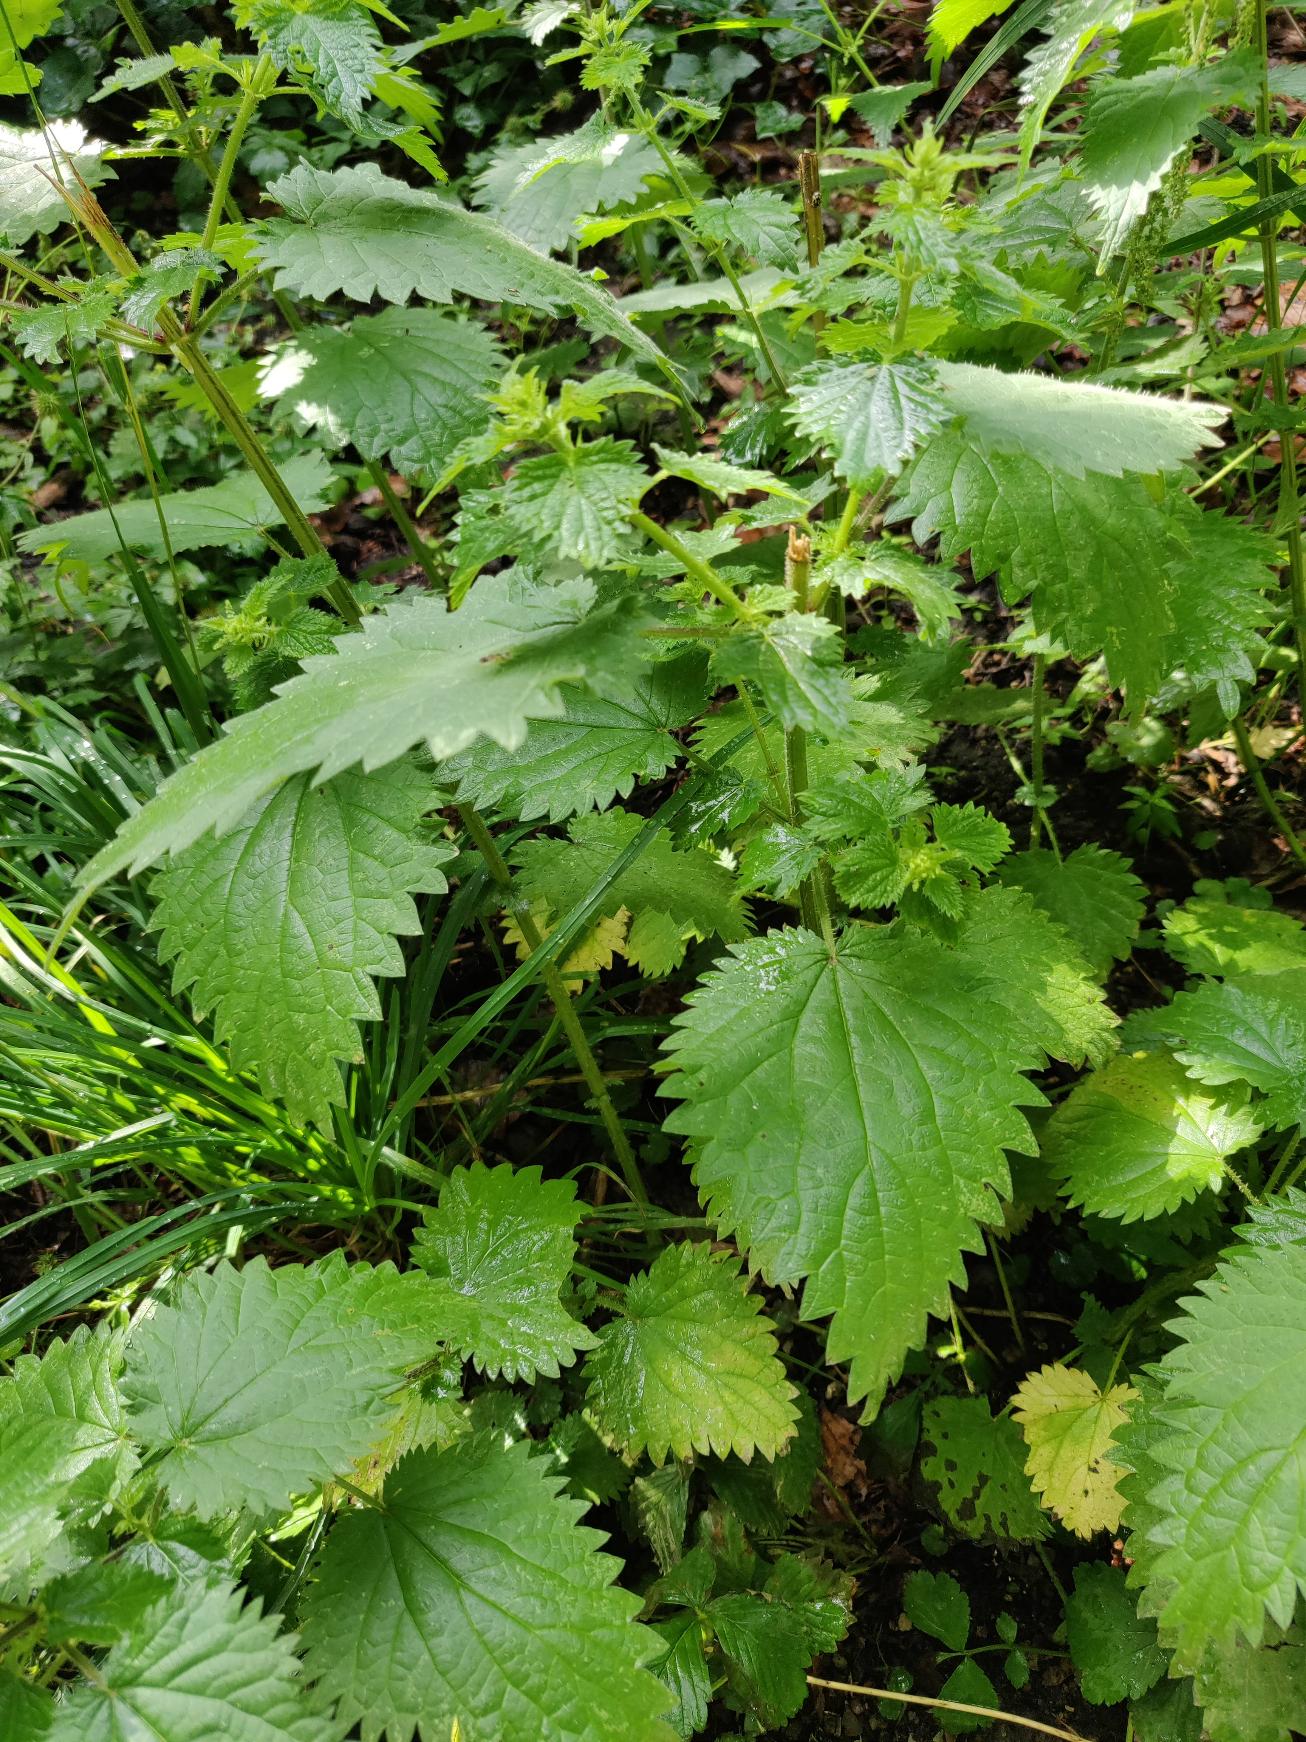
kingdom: Plantae
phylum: Tracheophyta
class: Magnoliopsida
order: Rosales
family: Urticaceae
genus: Urtica
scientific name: Urtica dioica
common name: Stor nælde
